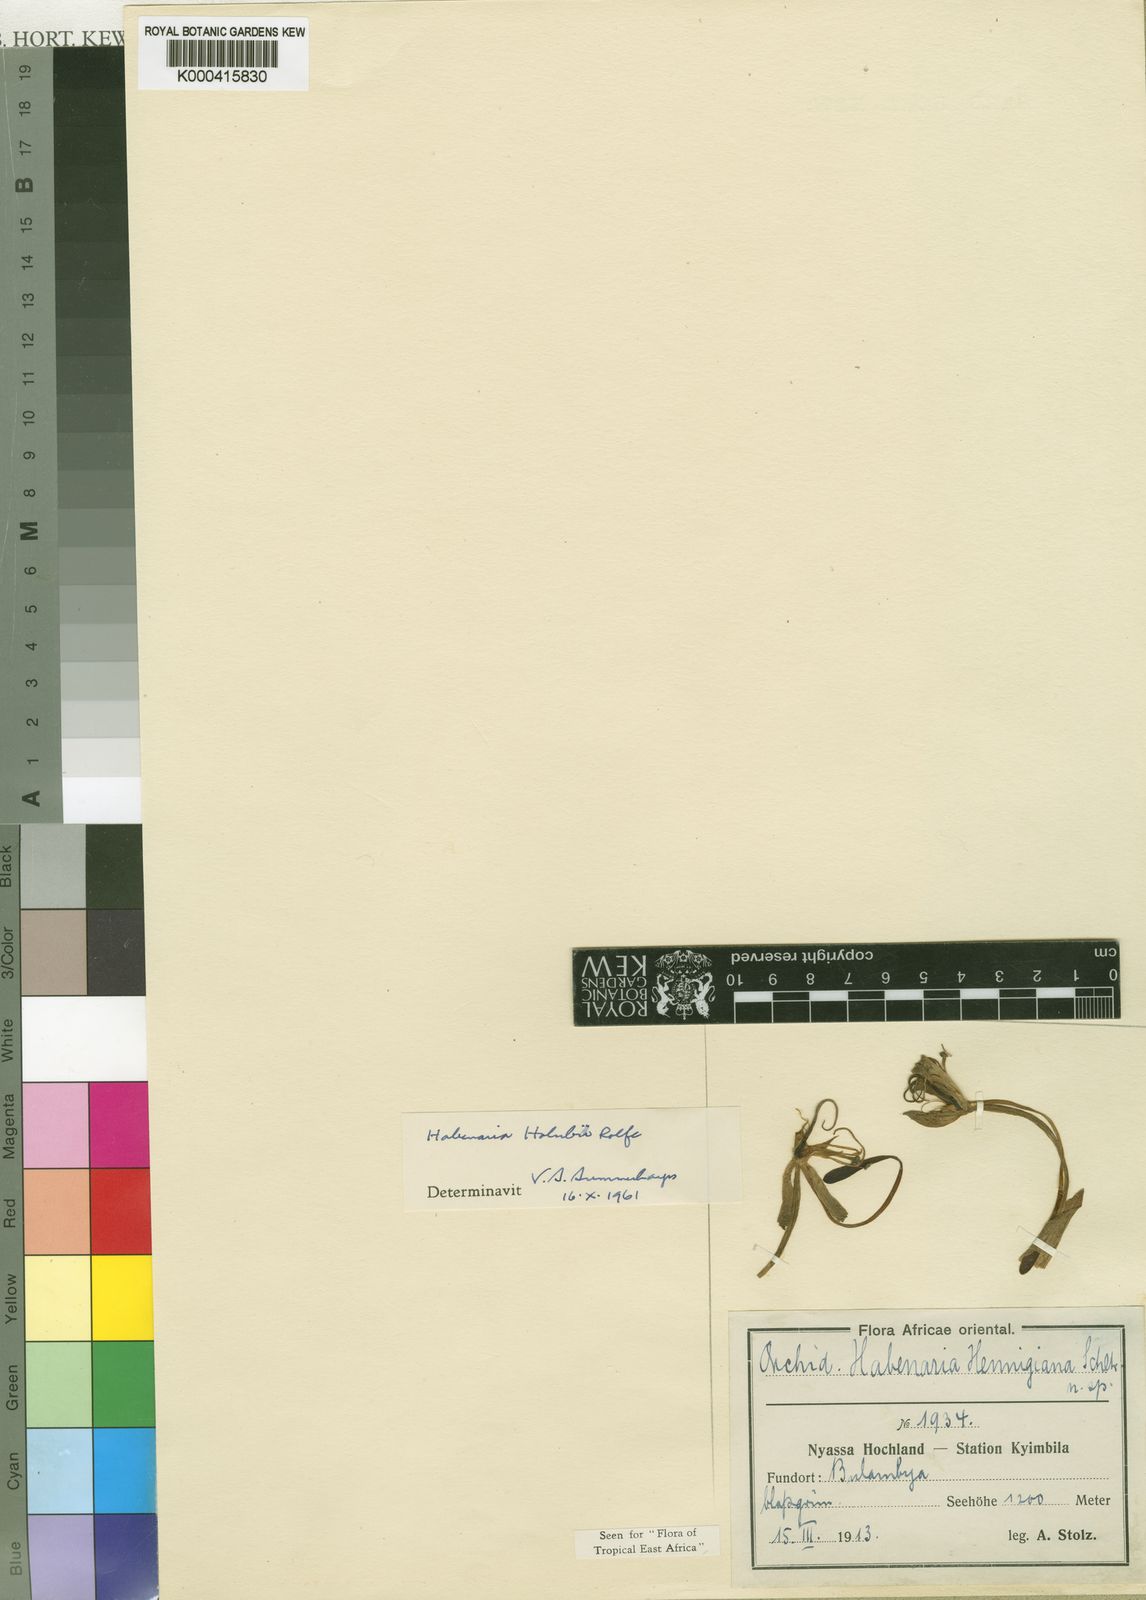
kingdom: Plantae
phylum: Tracheophyta
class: Liliopsida
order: Asparagales
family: Orchidaceae
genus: Habenaria
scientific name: Habenaria holubii
